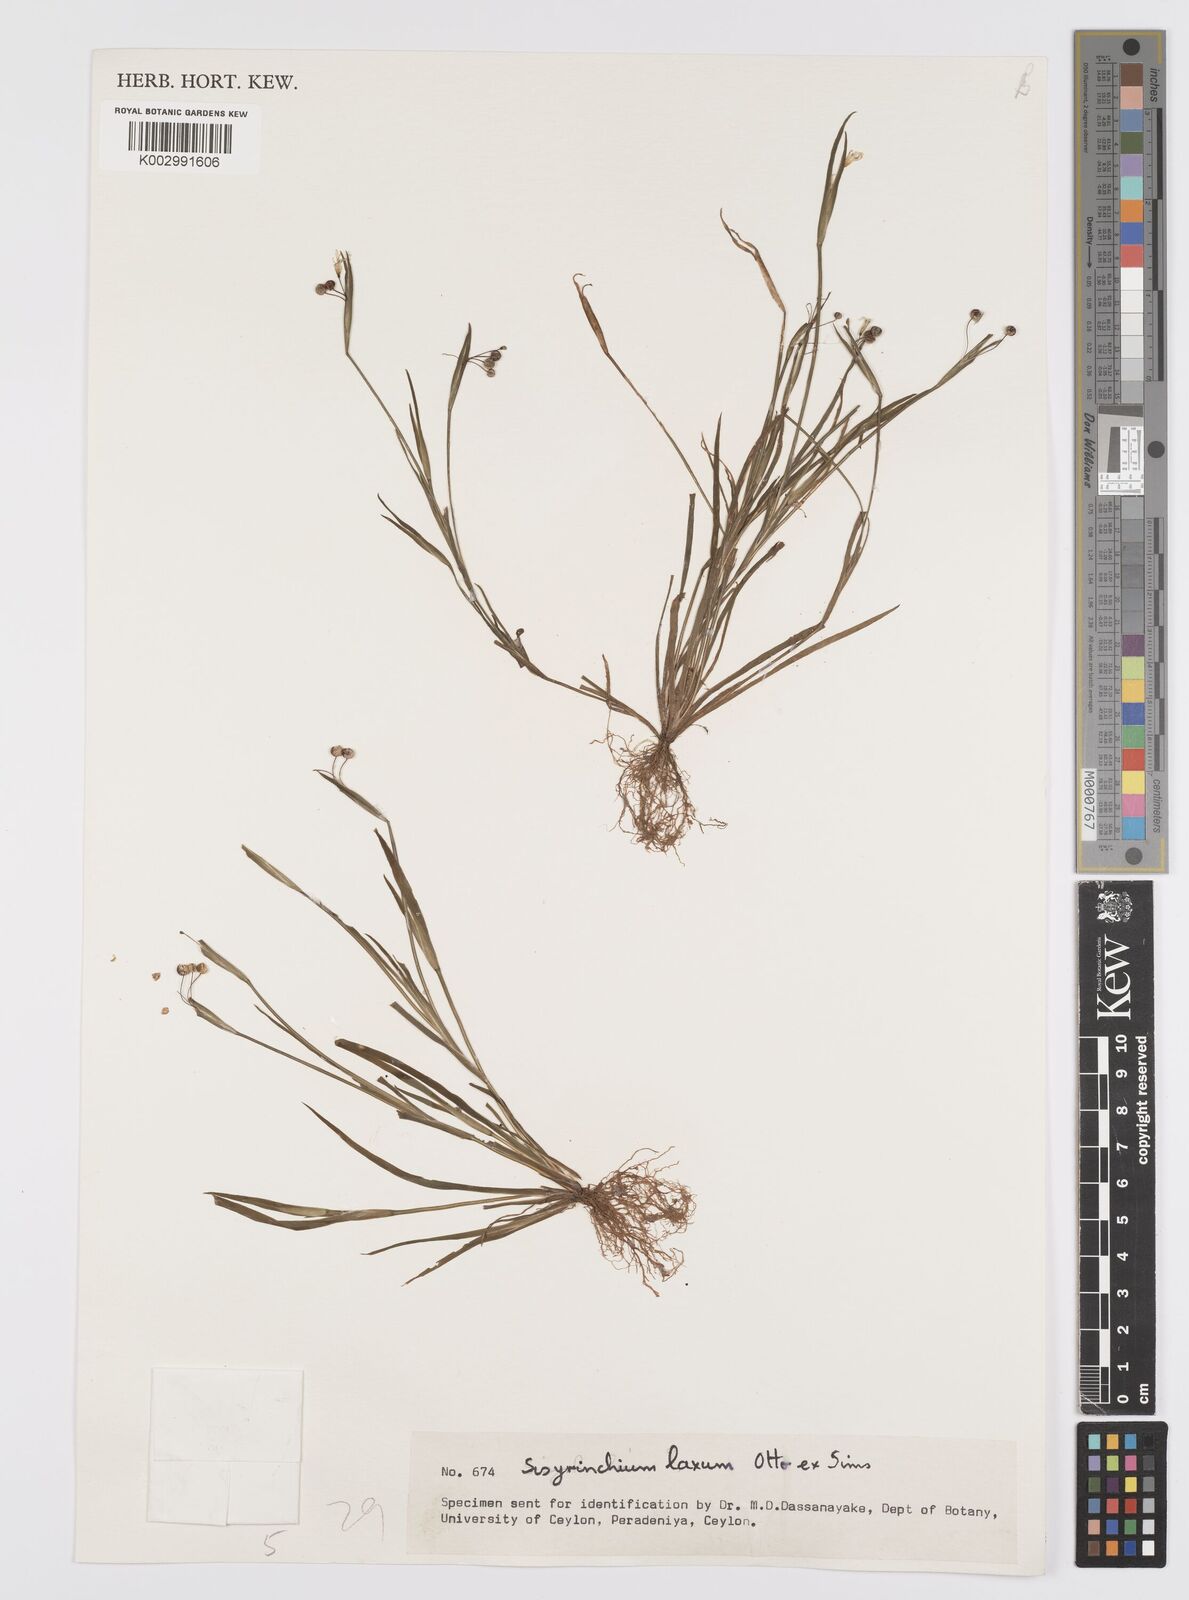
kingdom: Plantae
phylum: Tracheophyta
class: Liliopsida
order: Asparagales
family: Iridaceae
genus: Sisyrinchium
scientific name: Sisyrinchium laxum
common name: Veined yellow-eyed-grass
